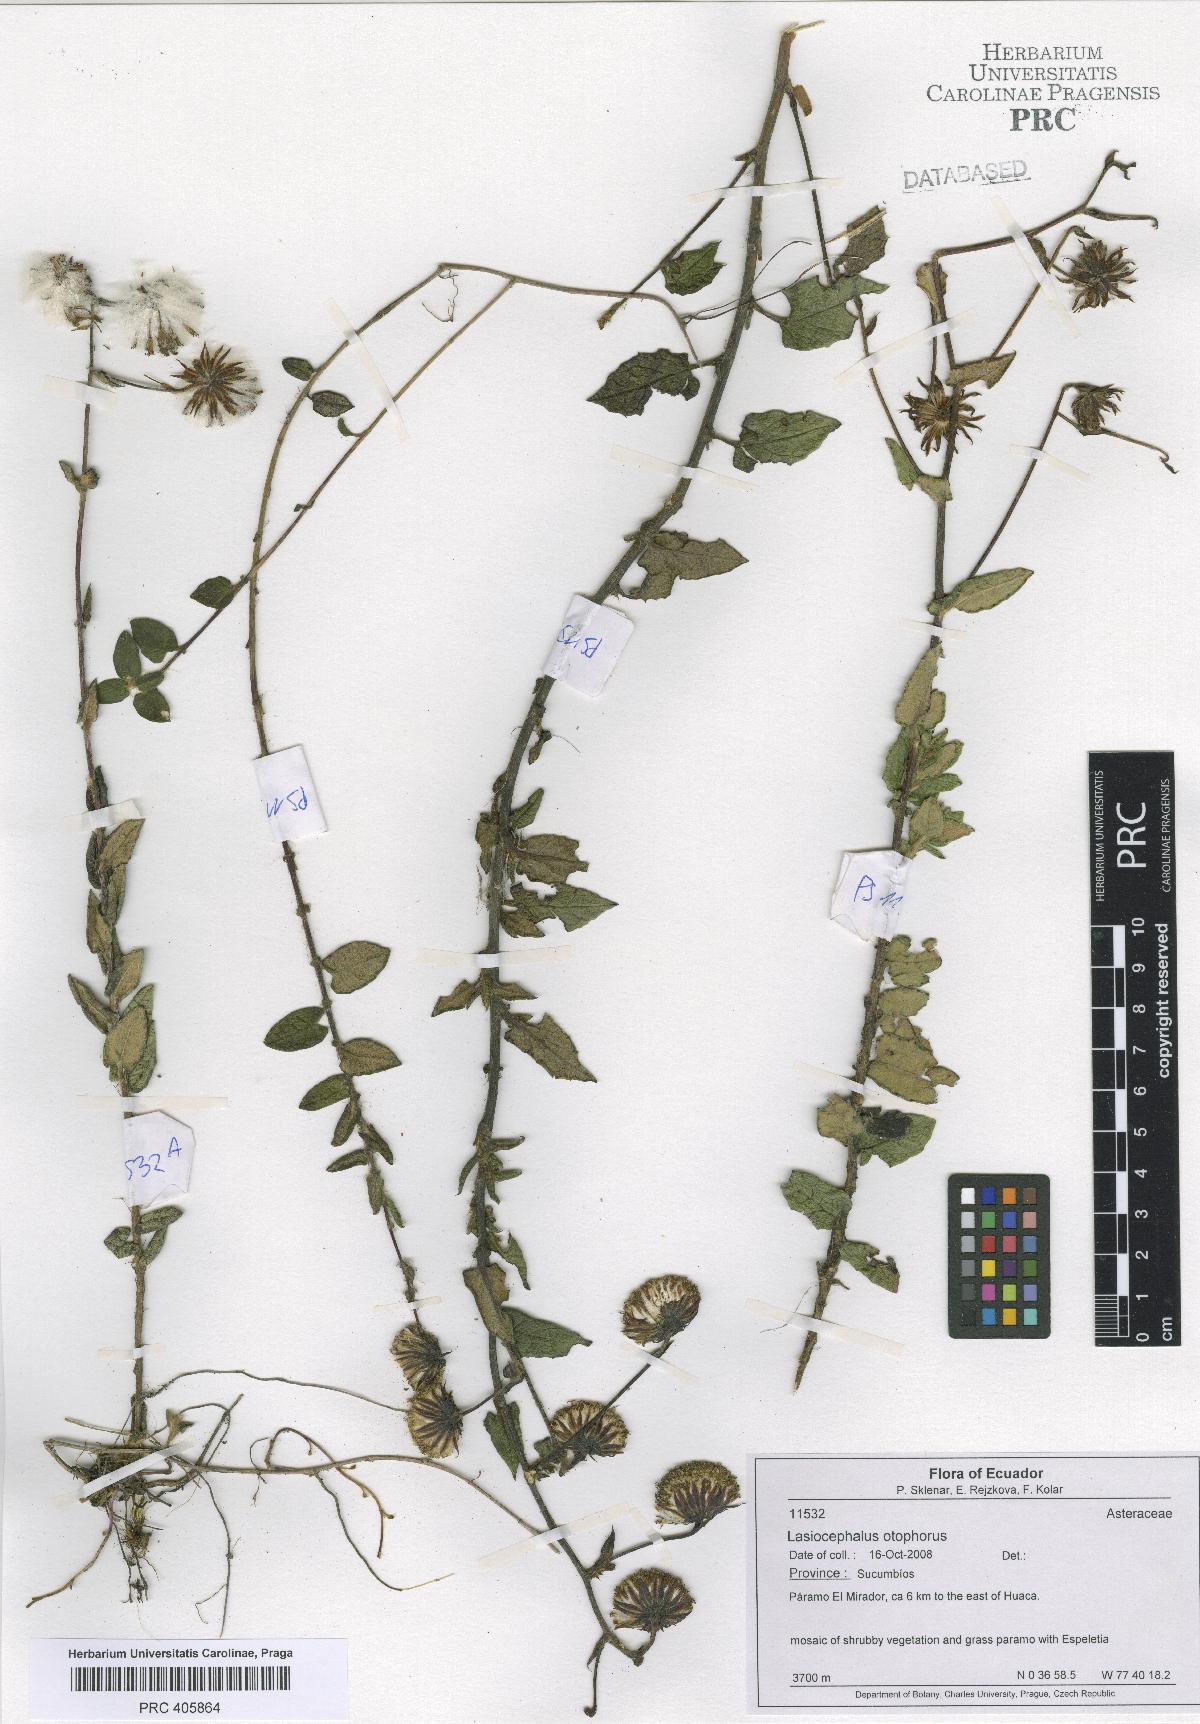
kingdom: Plantae
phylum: Tracheophyta
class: Magnoliopsida
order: Asterales
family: Asteraceae
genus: Aetheolaena
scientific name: Aetheolaena otophora
